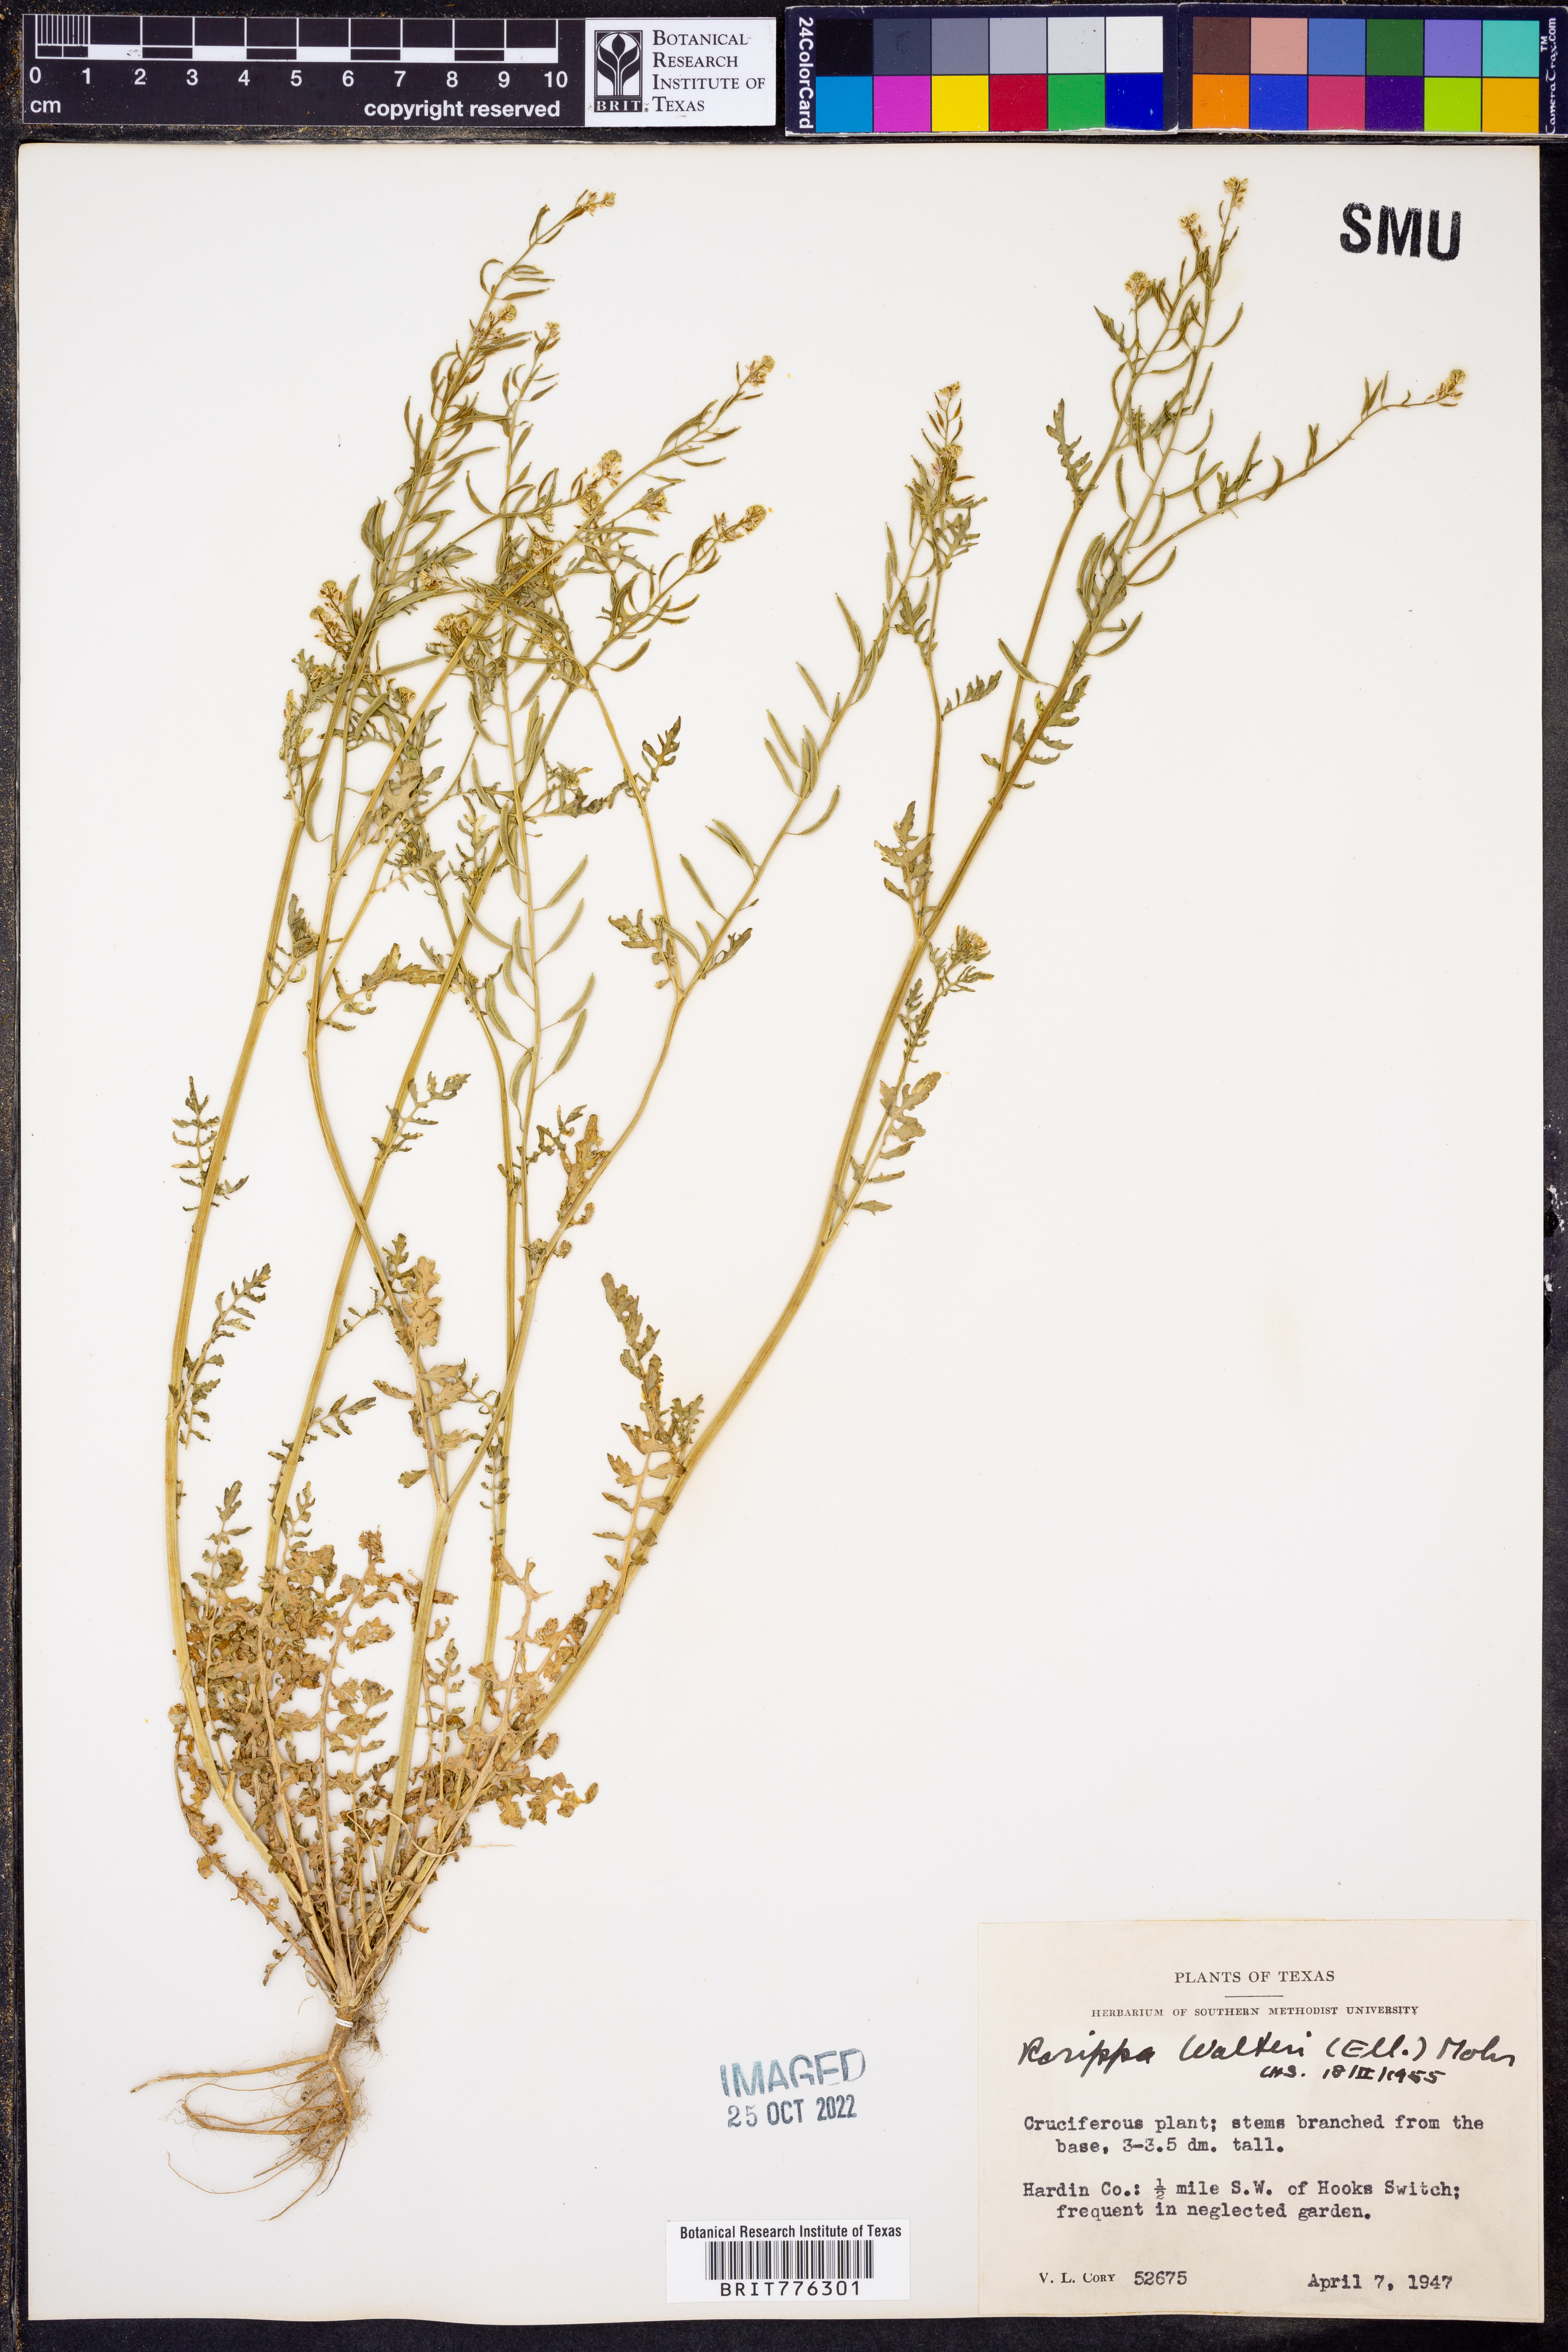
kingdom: Plantae
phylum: Tracheophyta
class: Magnoliopsida
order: Brassicales
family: Brassicaceae
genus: Rorippa
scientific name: Rorippa teres
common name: Southern marsh yellowcress
